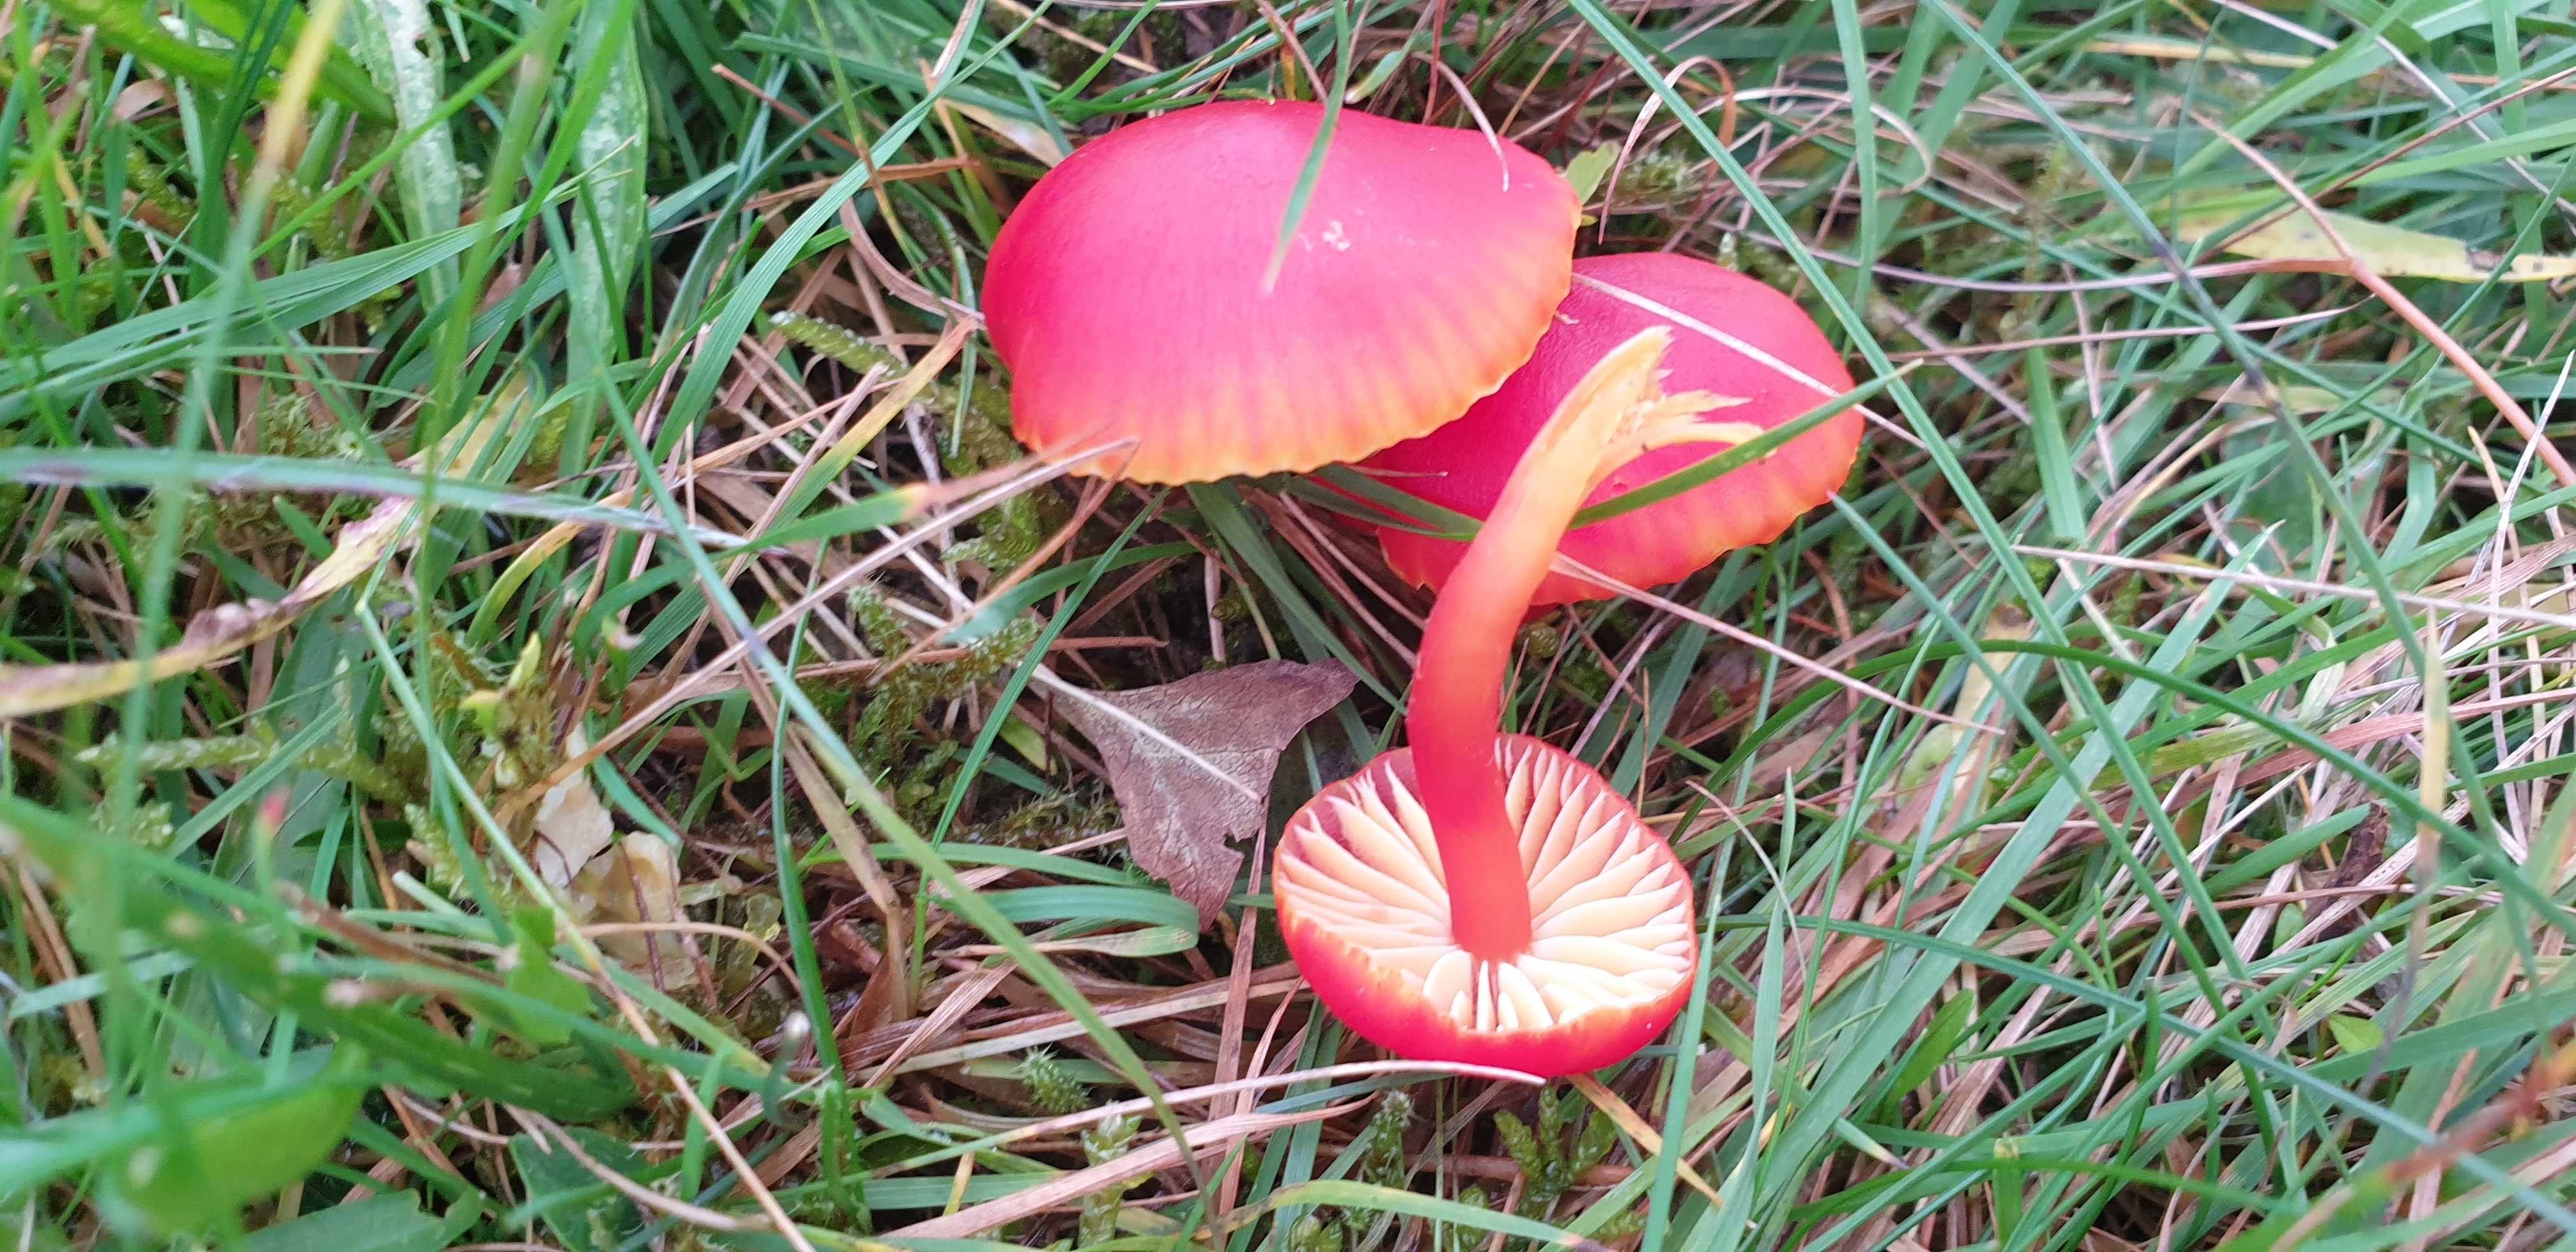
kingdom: Fungi
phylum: Basidiomycota
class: Agaricomycetes
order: Agaricales
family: Hygrophoraceae
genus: Hygrocybe
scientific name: Hygrocybe coccinea
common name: cinnober-vokshat
